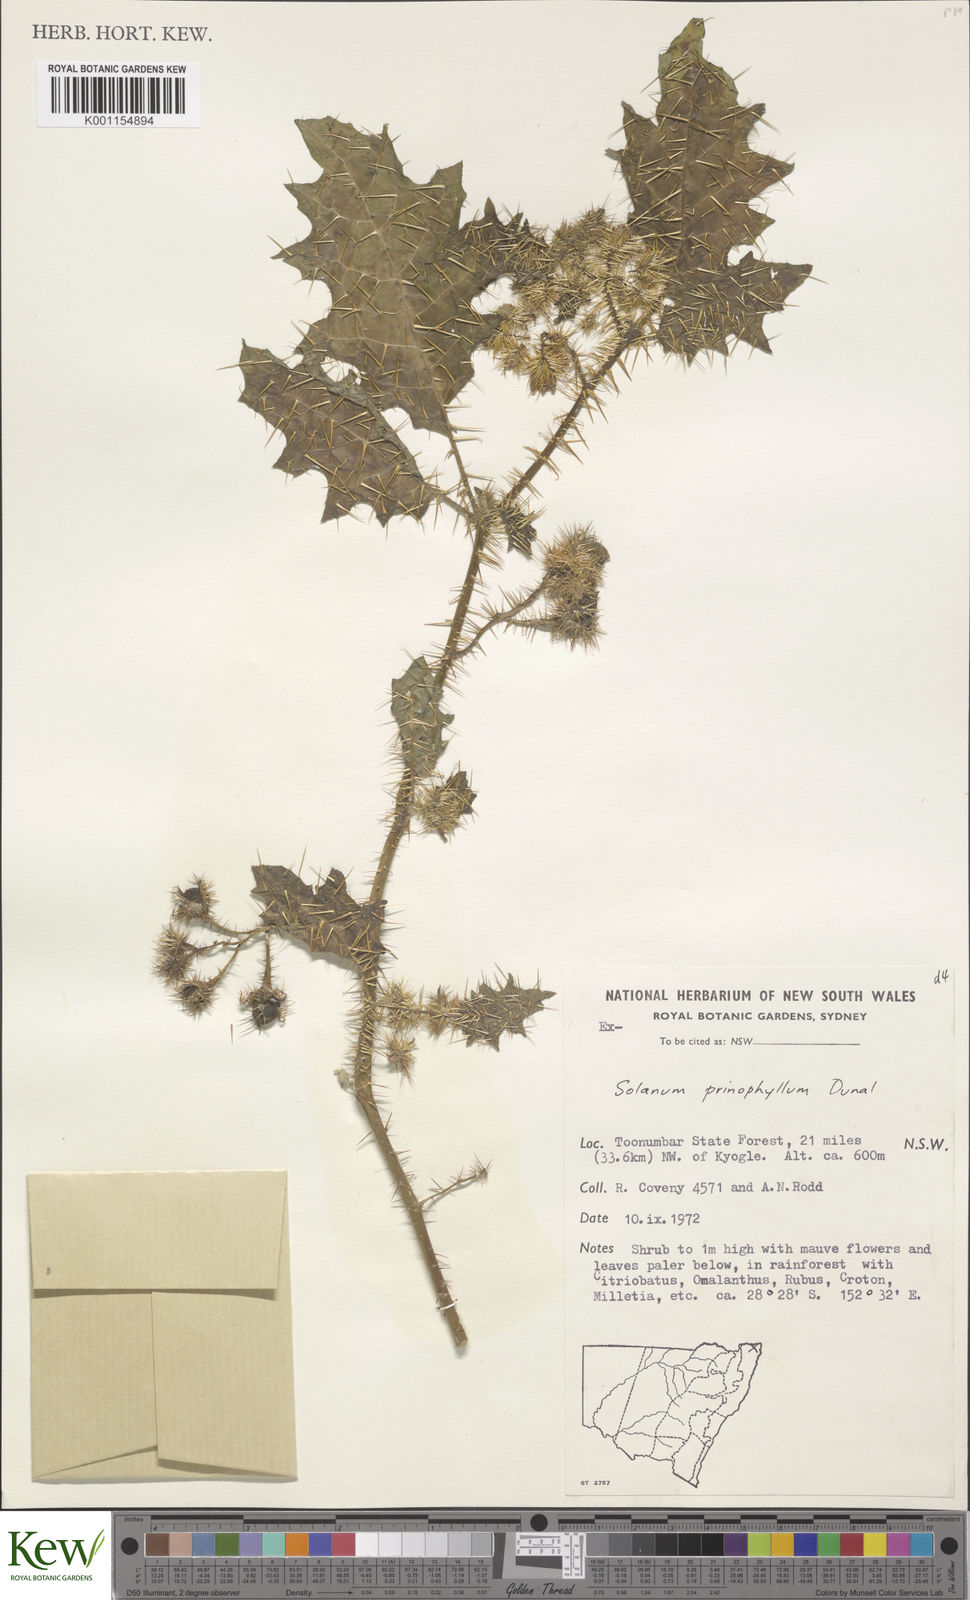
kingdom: Plantae
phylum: Tracheophyta
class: Magnoliopsida
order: Solanales
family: Solanaceae
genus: Solanum
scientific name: Solanum prinophyllum
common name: Forest nightshade
